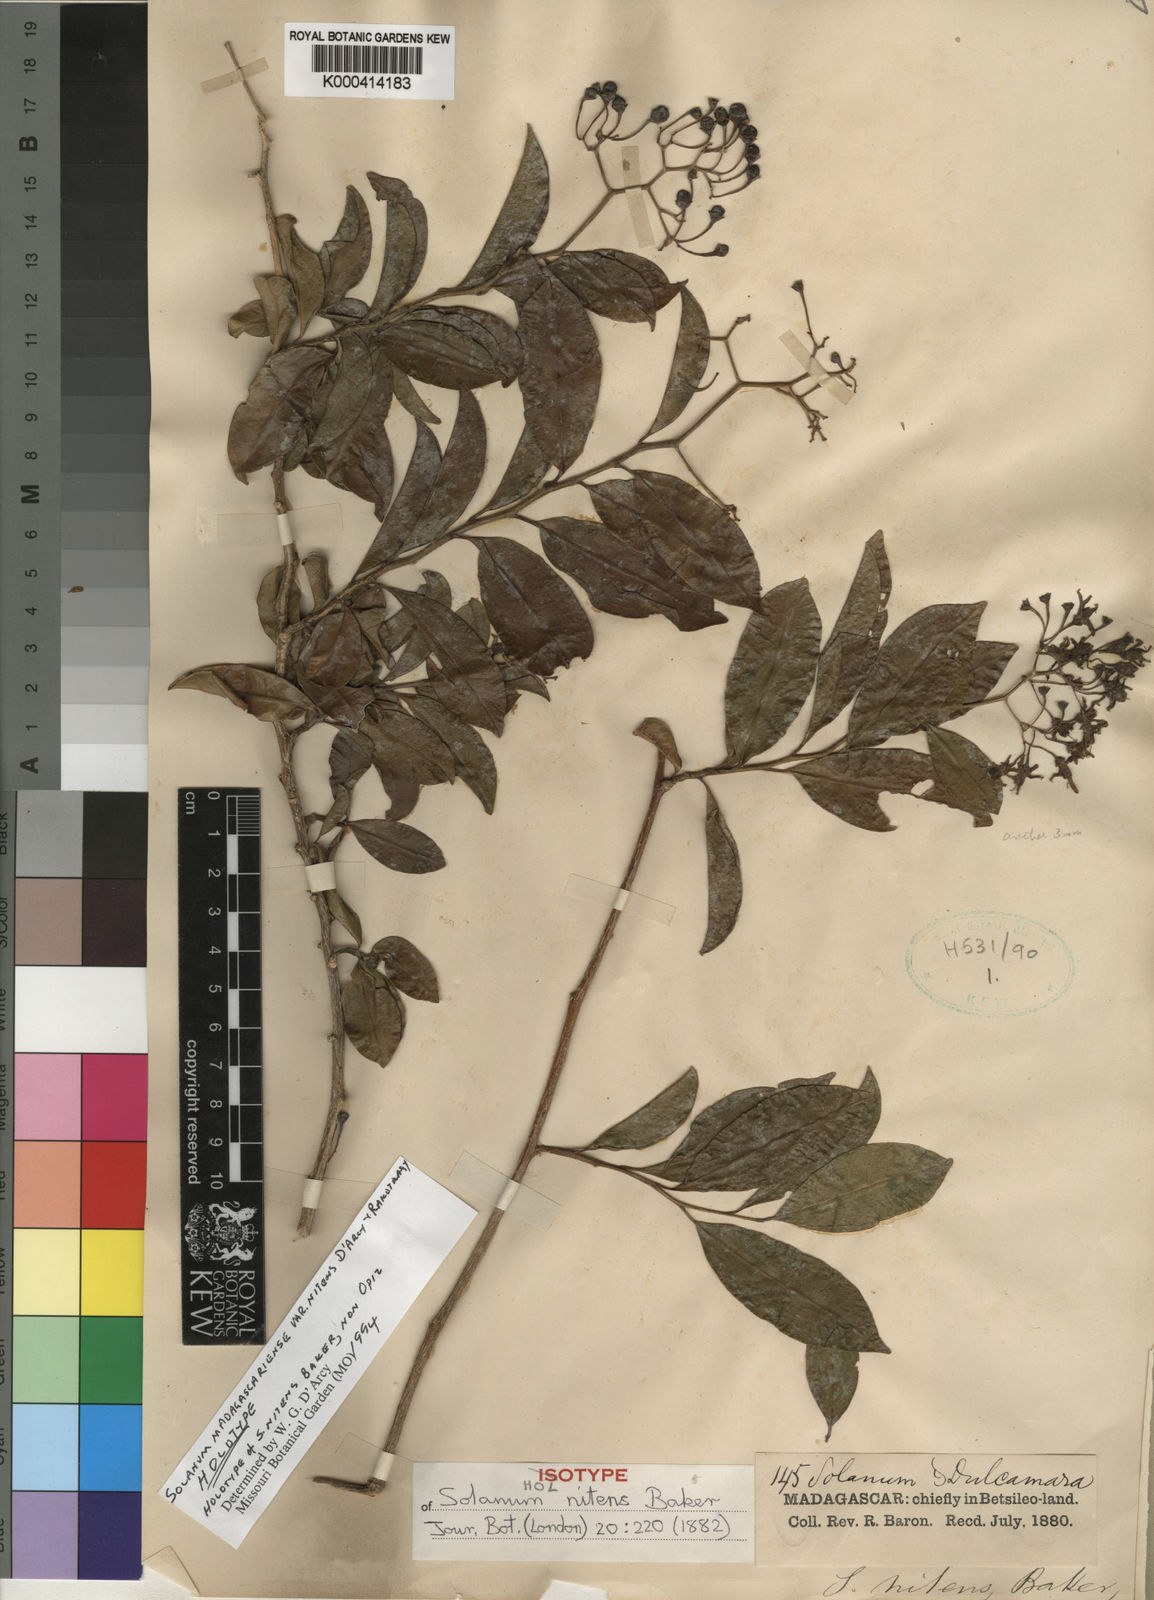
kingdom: Plantae
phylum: Tracheophyta
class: Magnoliopsida
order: Solanales
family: Solanaceae
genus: Solanum
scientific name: Solanum madagascariense
